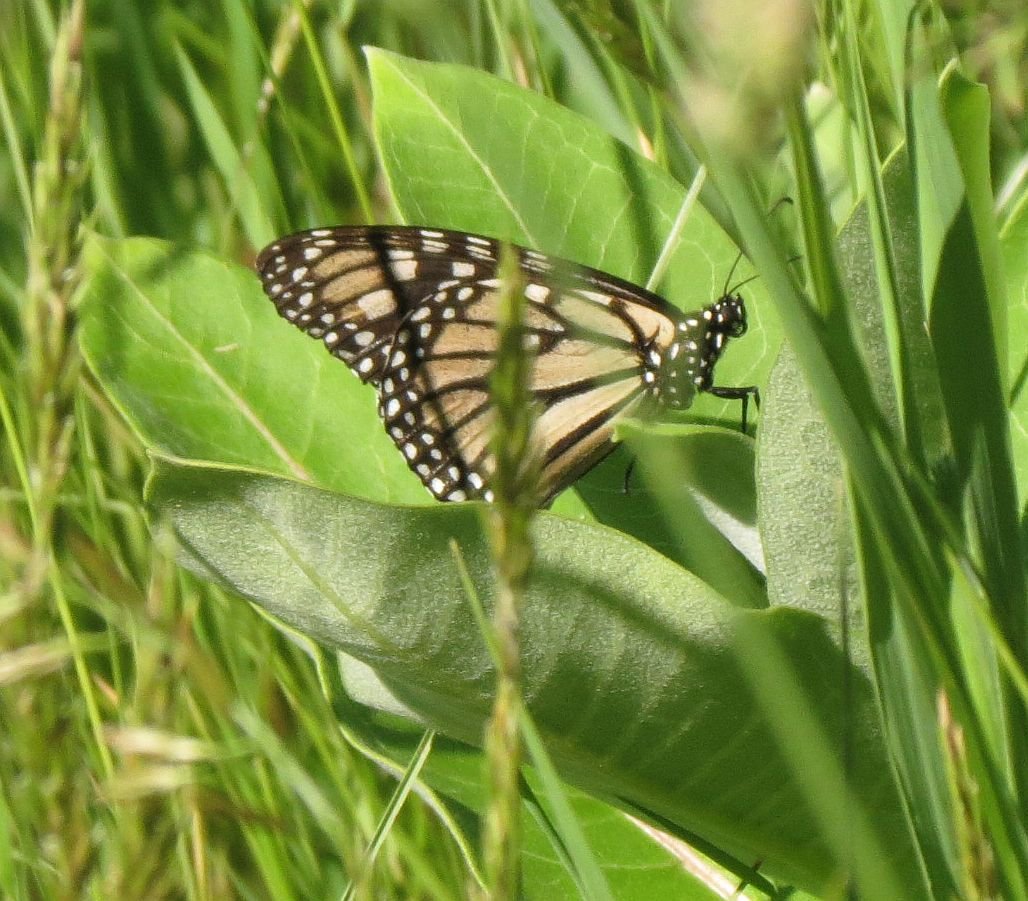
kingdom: Animalia
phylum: Arthropoda
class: Insecta
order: Lepidoptera
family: Nymphalidae
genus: Danaus
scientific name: Danaus plexippus
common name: Monarch
